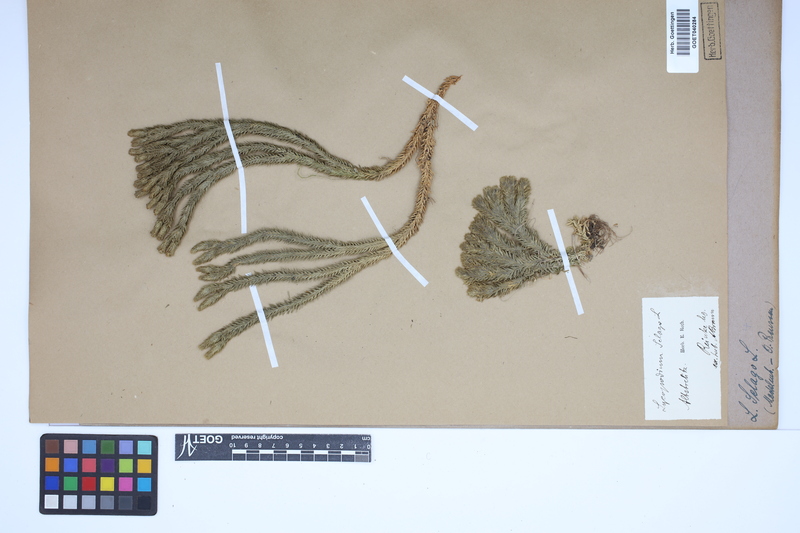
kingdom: Plantae
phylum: Tracheophyta
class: Lycopodiopsida
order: Lycopodiales
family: Lycopodiaceae
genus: Huperzia
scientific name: Huperzia selago
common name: Northern firmoss
